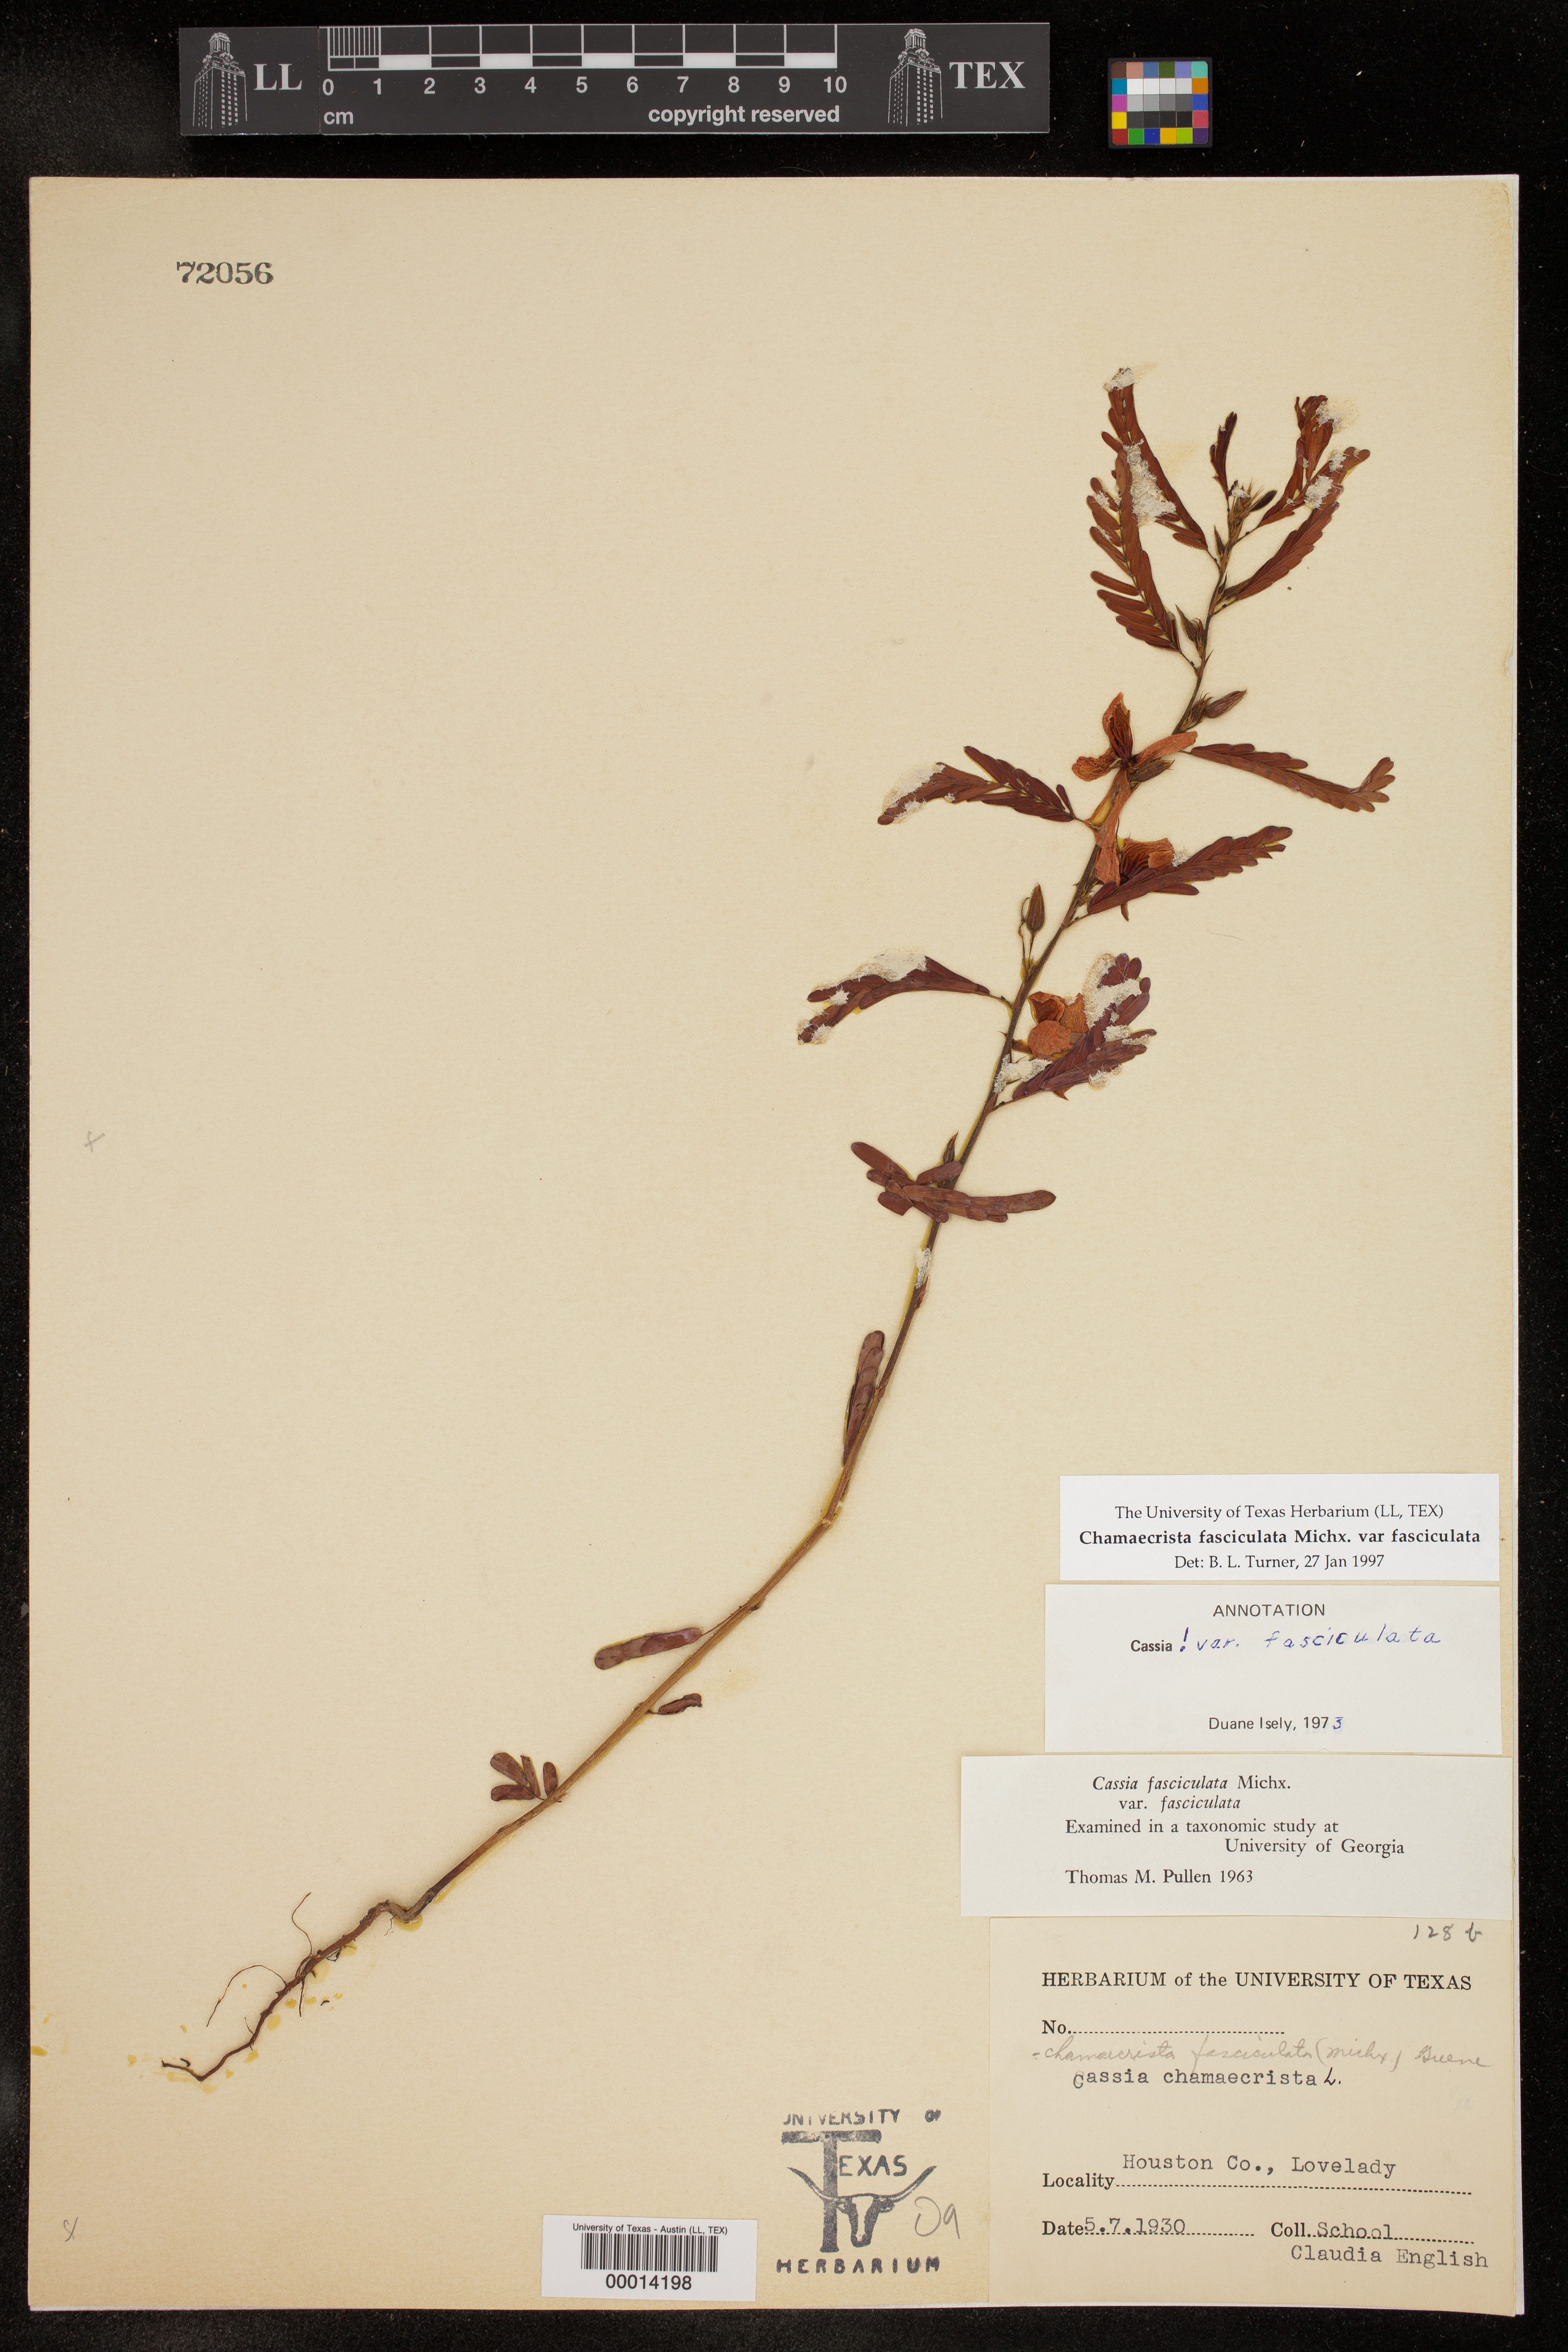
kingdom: Plantae
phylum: Tracheophyta
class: Magnoliopsida
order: Fabales
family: Fabaceae
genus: Chamaecrista
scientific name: Chamaecrista fasciculata
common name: Golden cassia
